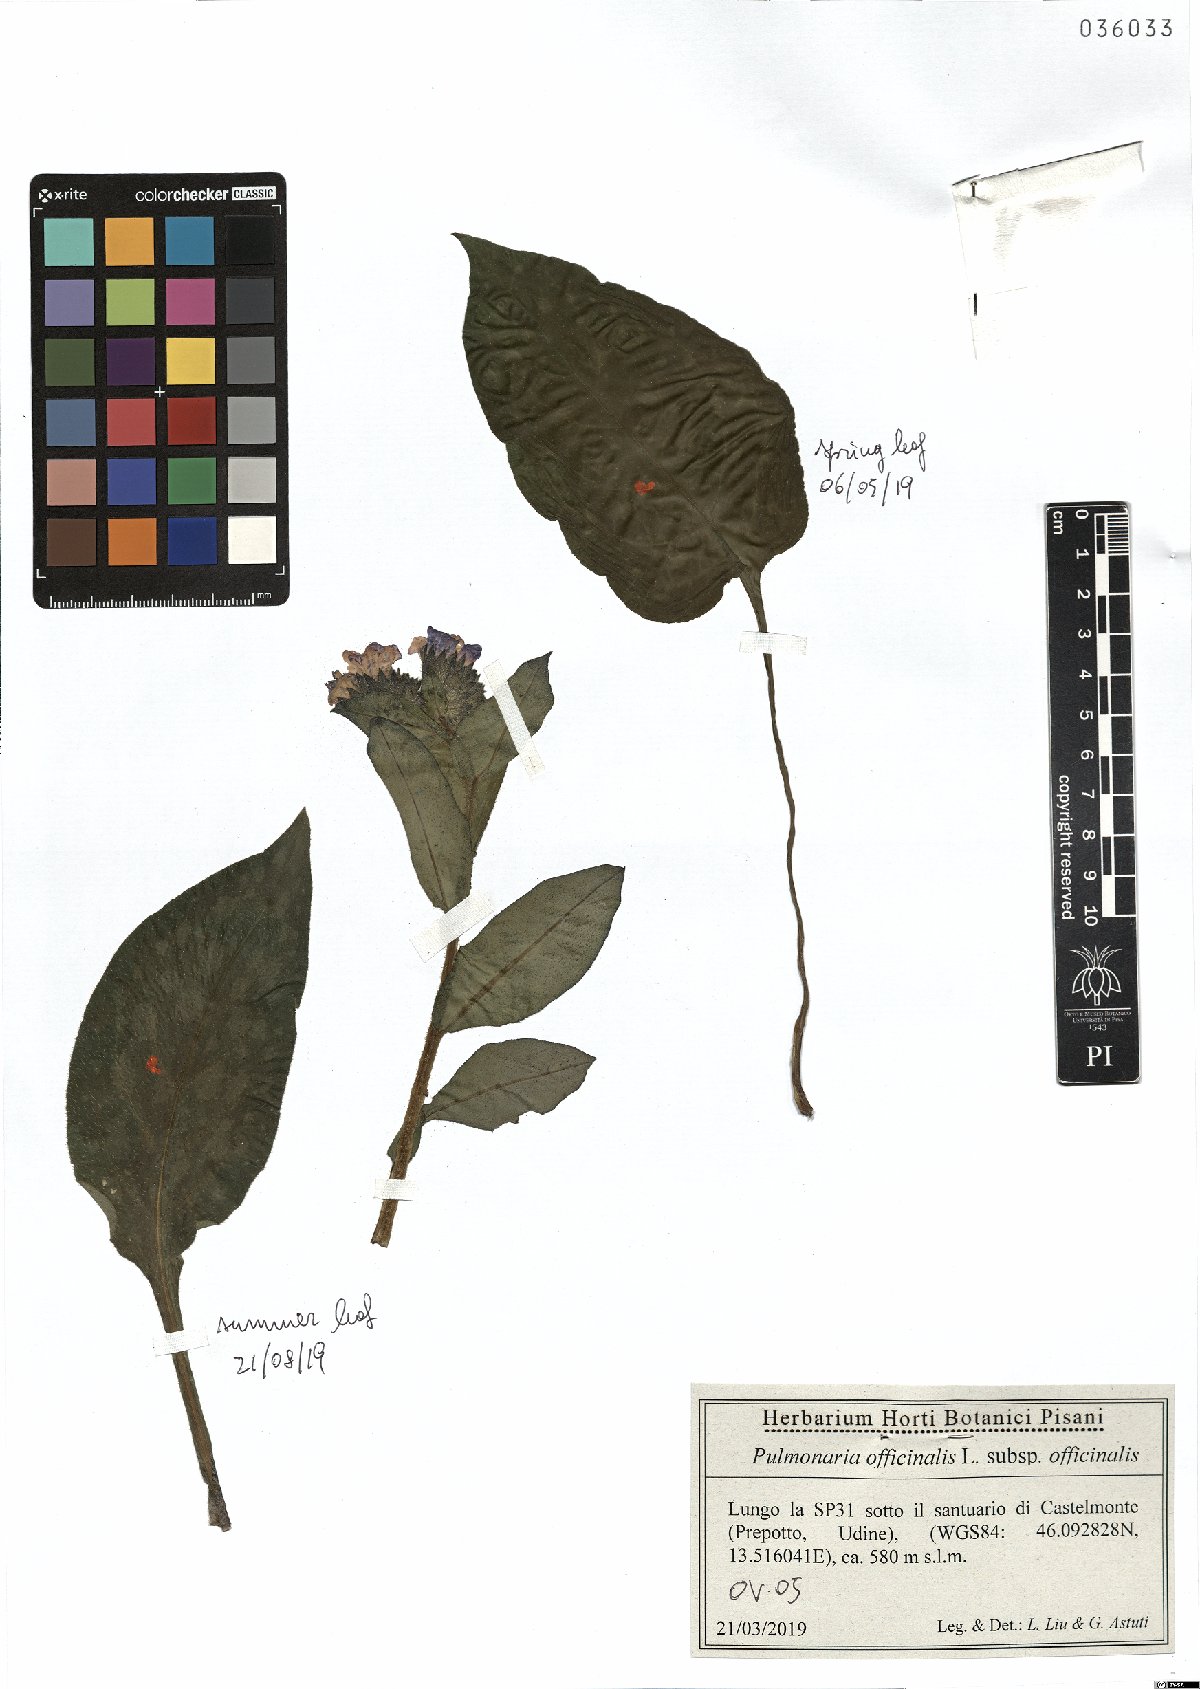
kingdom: Plantae
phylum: Tracheophyta
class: Magnoliopsida
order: Boraginales
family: Boraginaceae
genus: Pulmonaria
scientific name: Pulmonaria officinalis
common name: Lungwort
